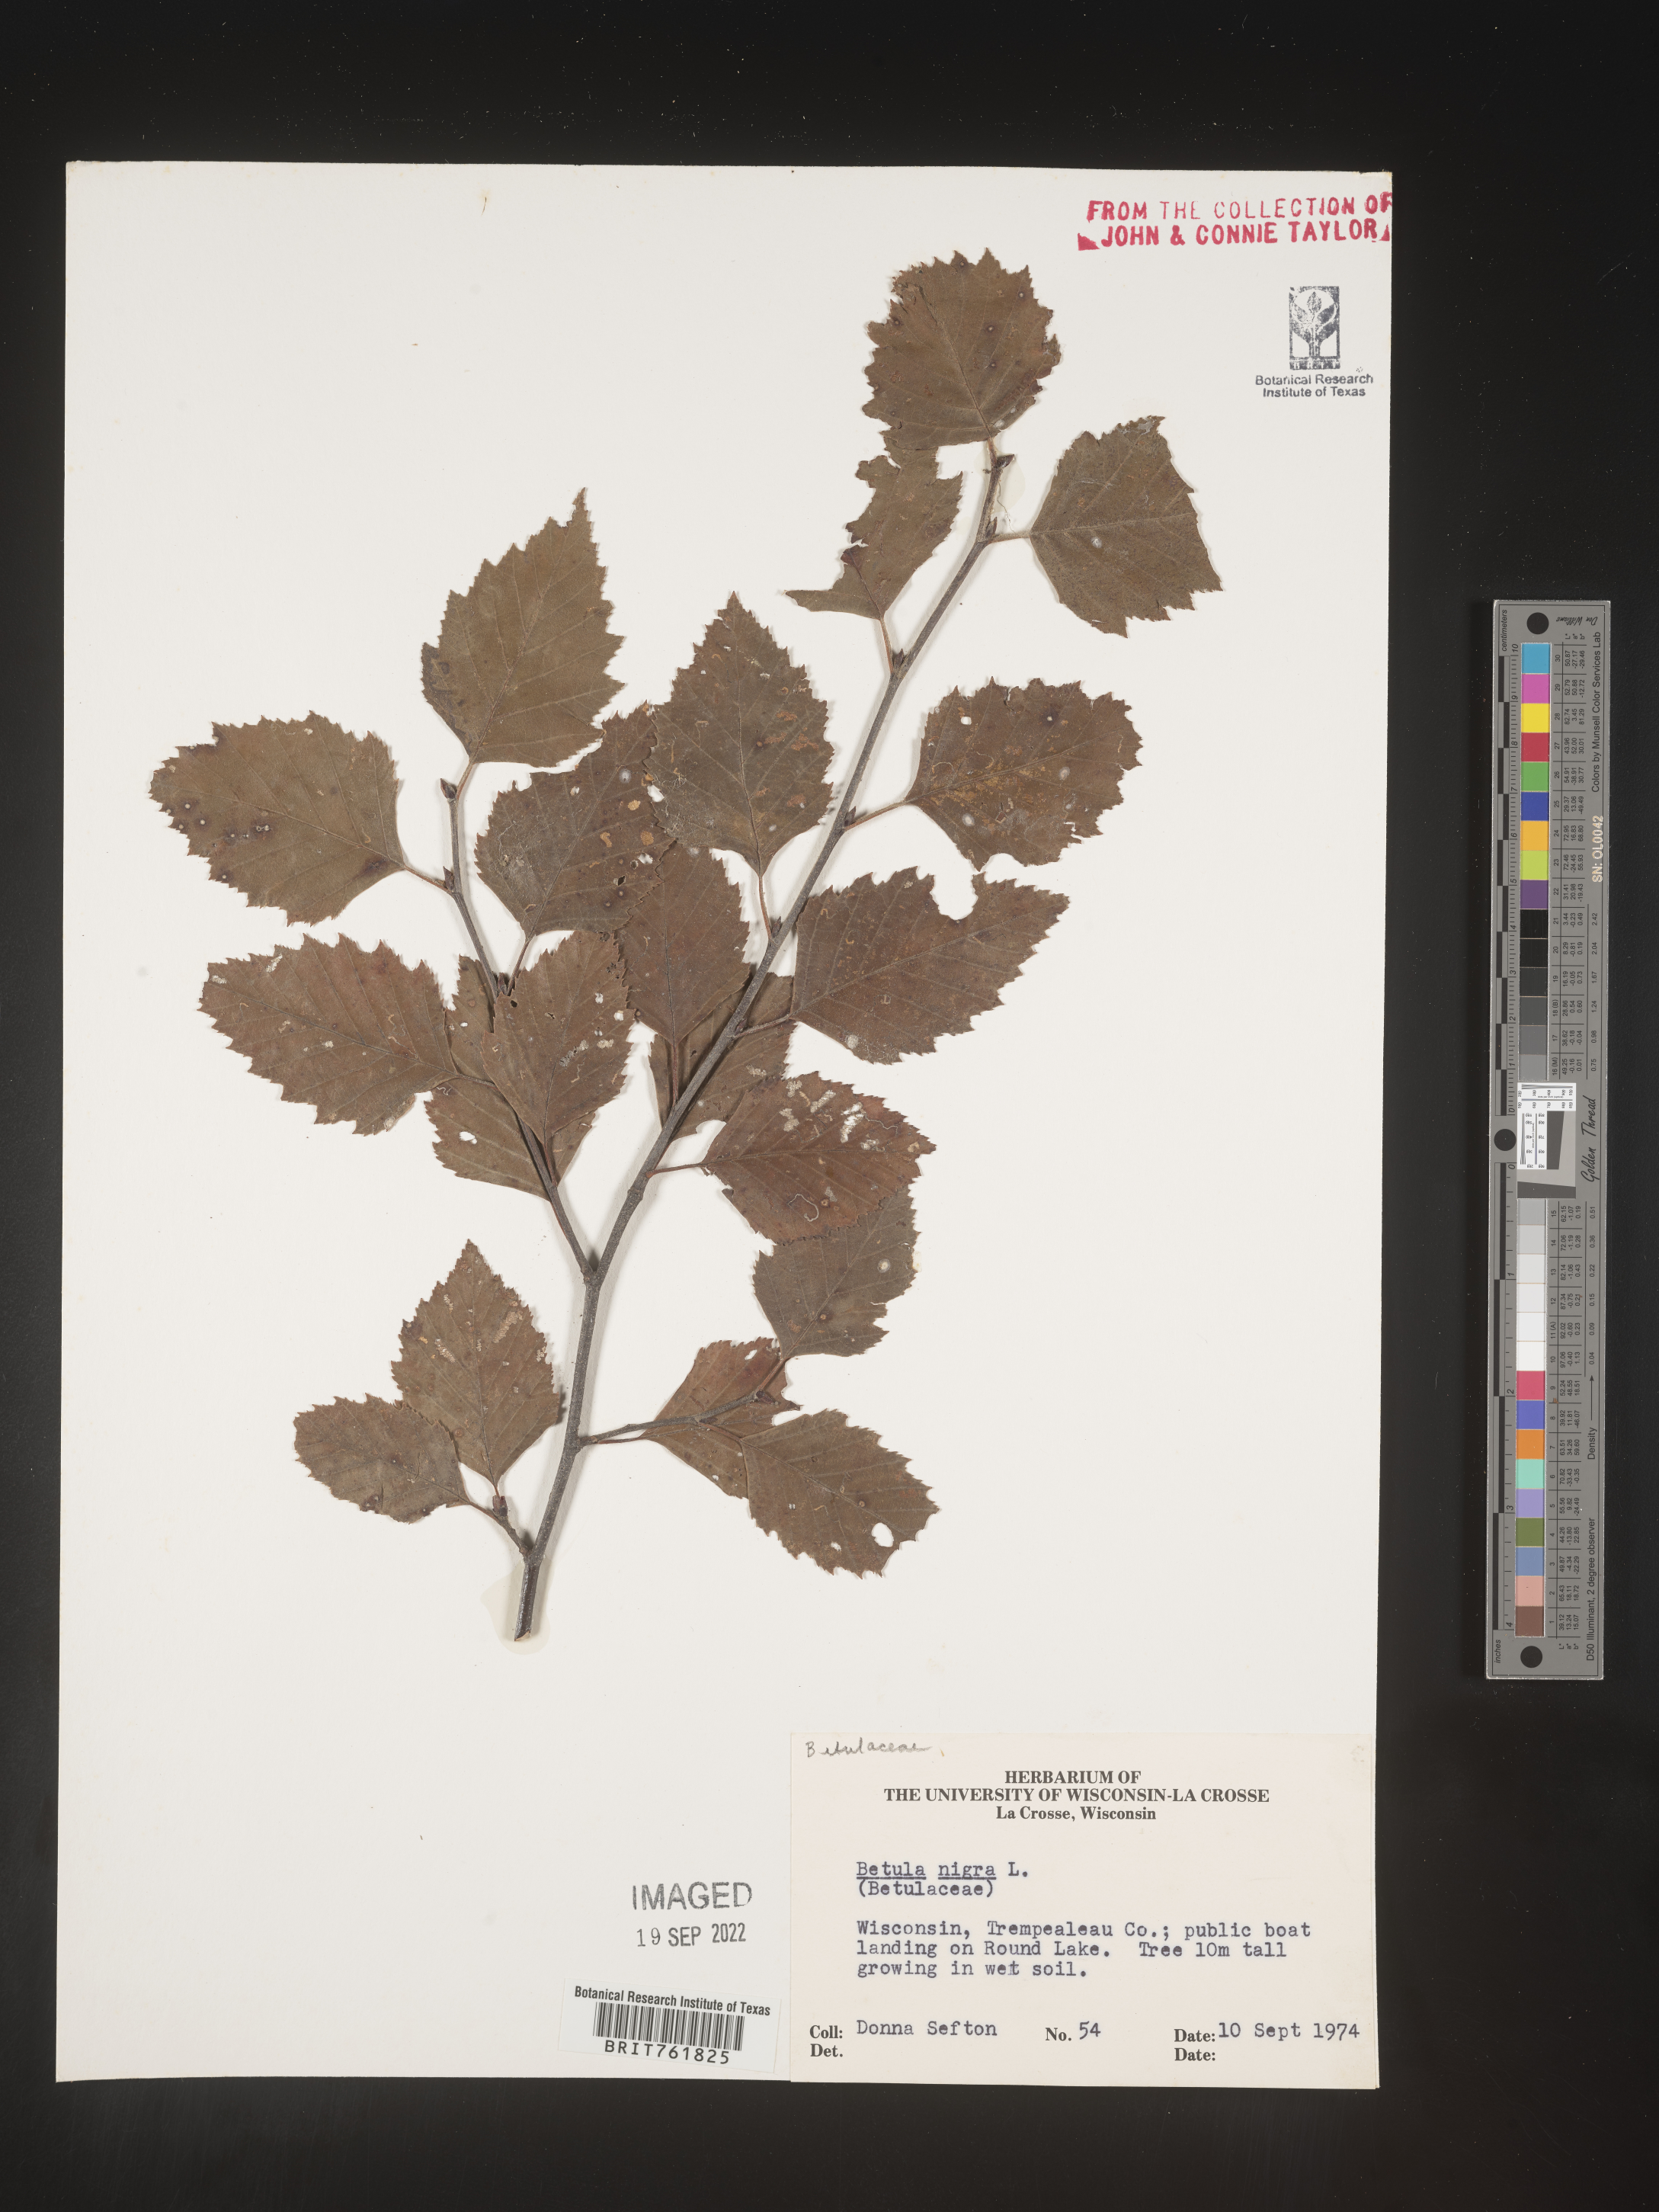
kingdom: Plantae
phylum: Tracheophyta
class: Magnoliopsida
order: Fagales
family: Betulaceae
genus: Betula
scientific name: Betula nigra
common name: Black birch
